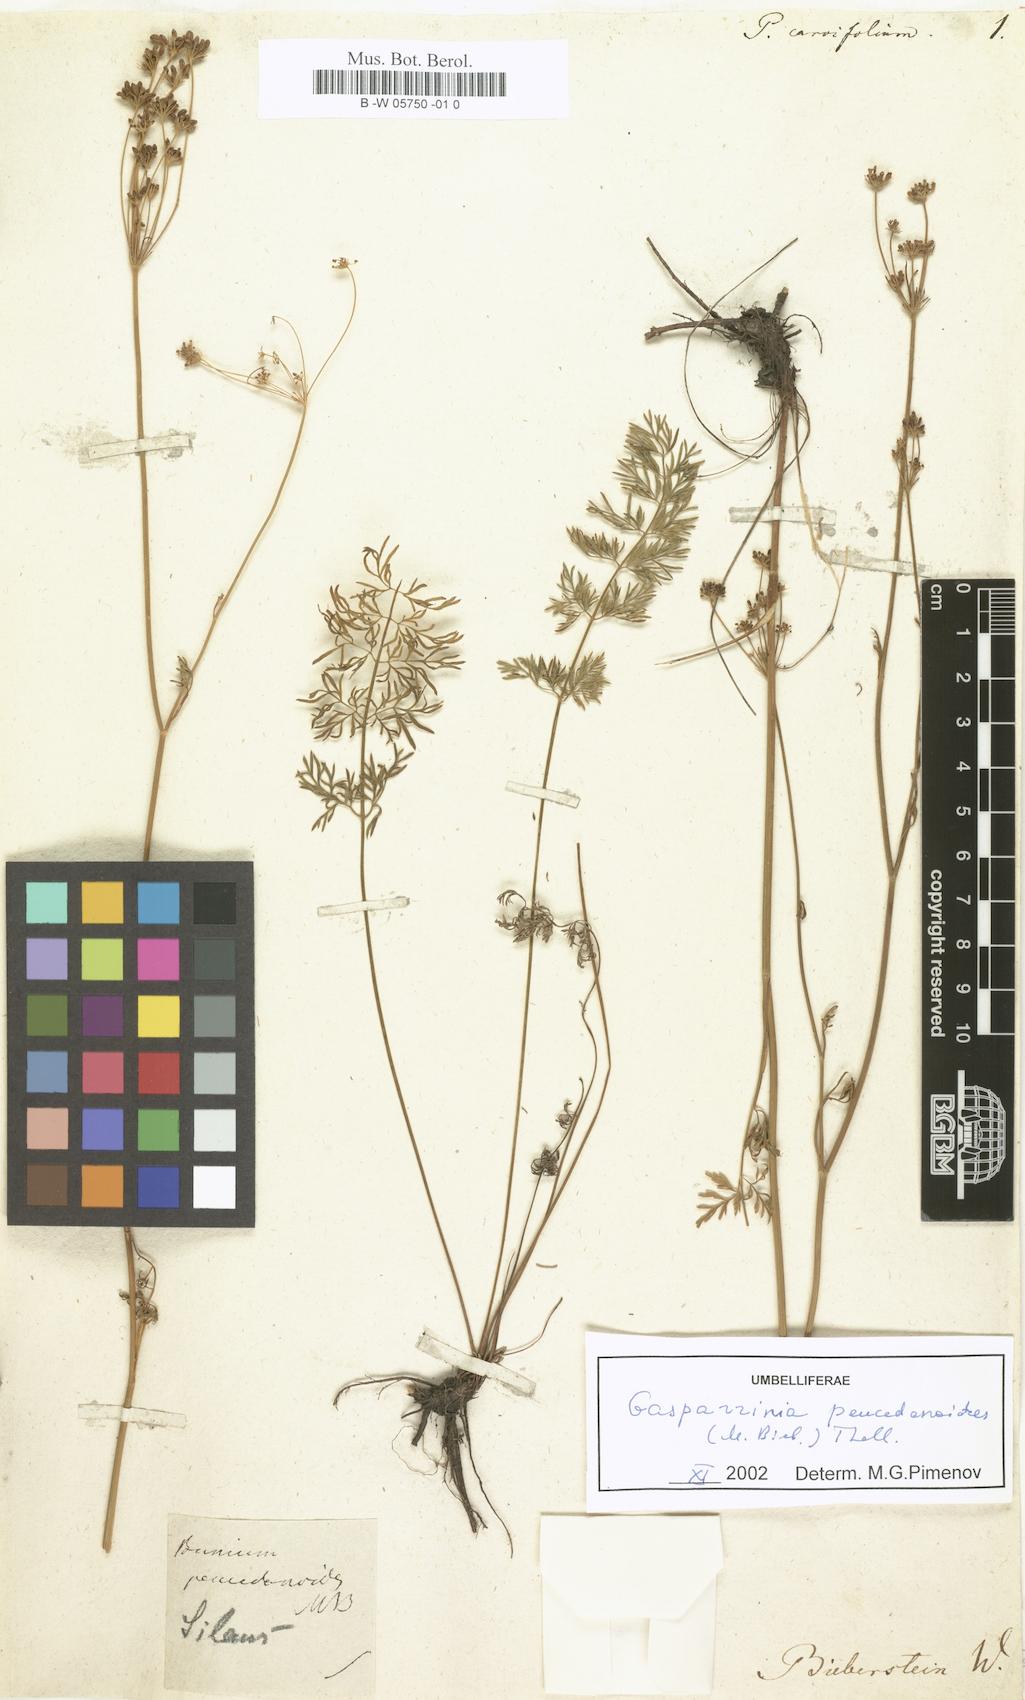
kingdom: Plantae
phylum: Tracheophyta
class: Magnoliopsida
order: Apiales
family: Apiaceae
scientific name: Apiaceae
